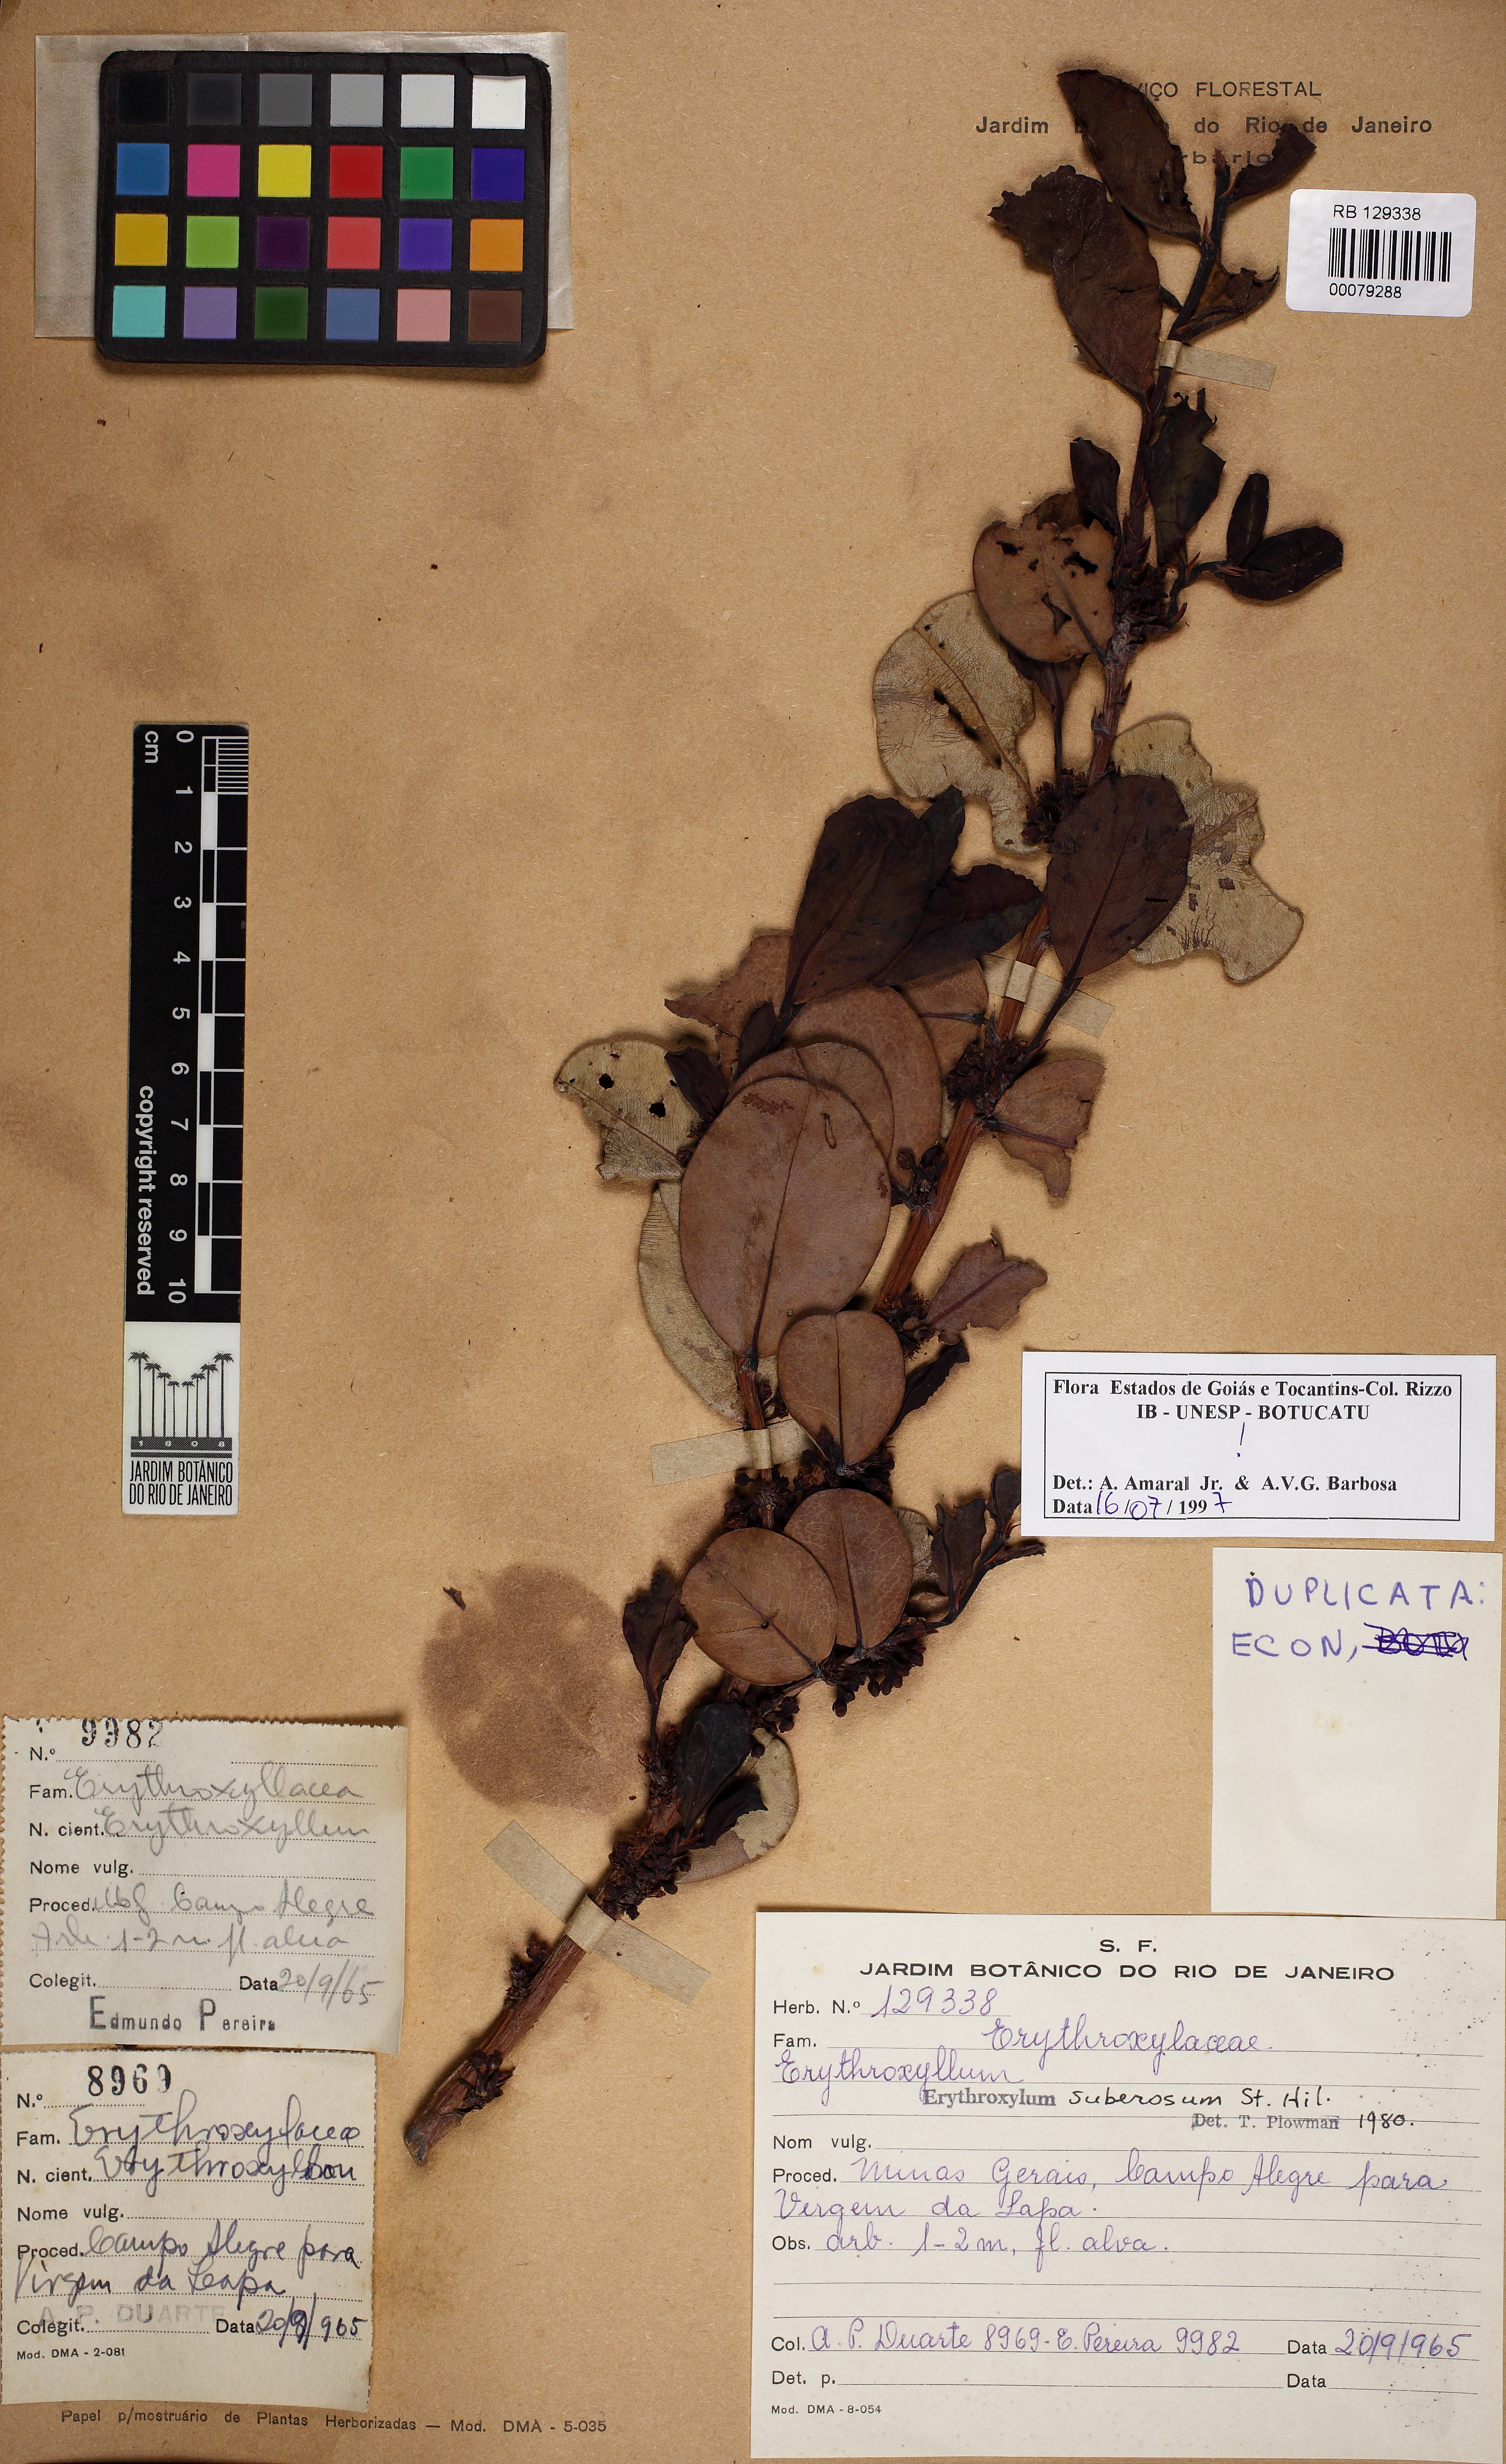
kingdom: Plantae
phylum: Tracheophyta
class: Magnoliopsida
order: Malpighiales
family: Erythroxylaceae
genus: Erythroxylum
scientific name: Erythroxylum suberosum
